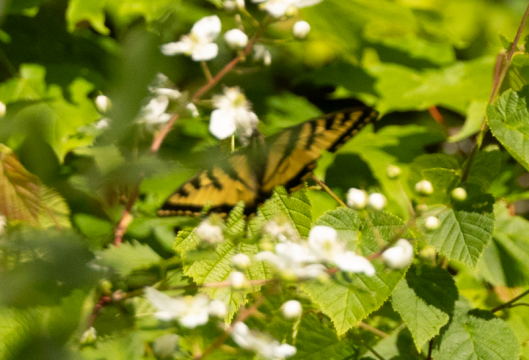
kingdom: Animalia
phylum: Arthropoda
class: Insecta
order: Lepidoptera
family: Papilionidae
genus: Papilio
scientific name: Papilio
